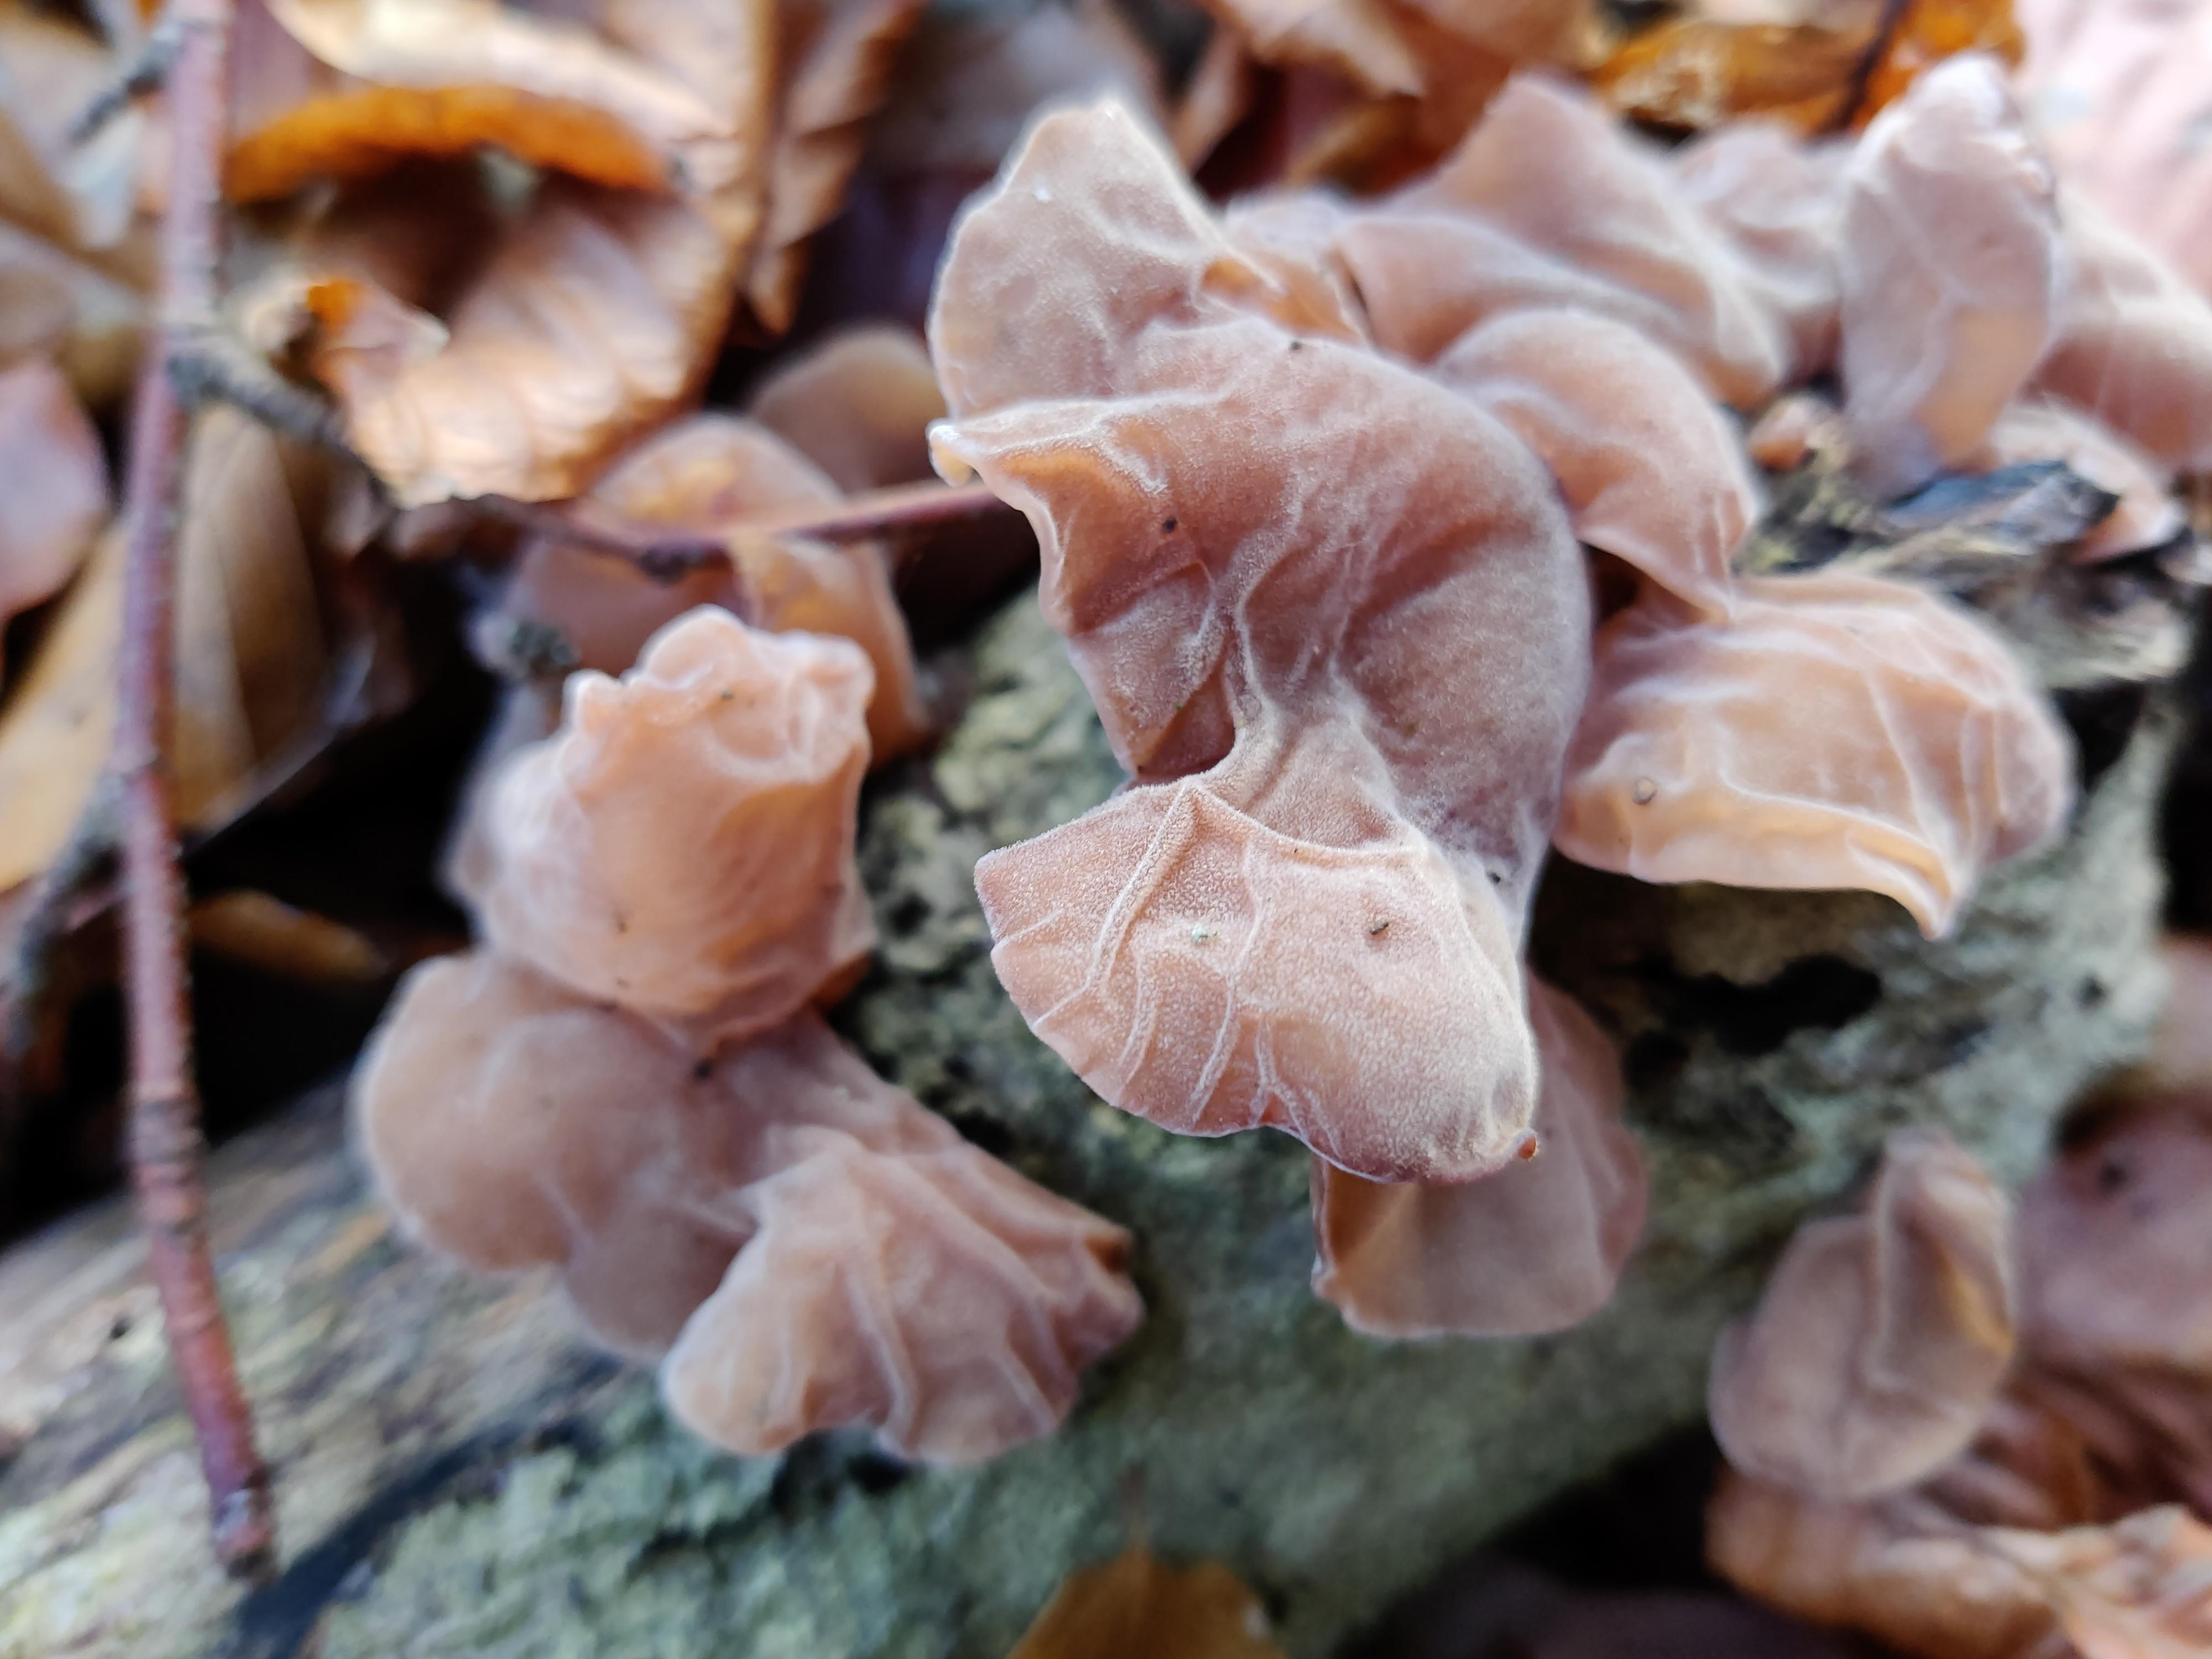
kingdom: Fungi
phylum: Basidiomycota
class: Agaricomycetes
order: Auriculariales
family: Auriculariaceae
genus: Auricularia
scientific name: Auricularia auricula-judae
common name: almindelig judasøre
